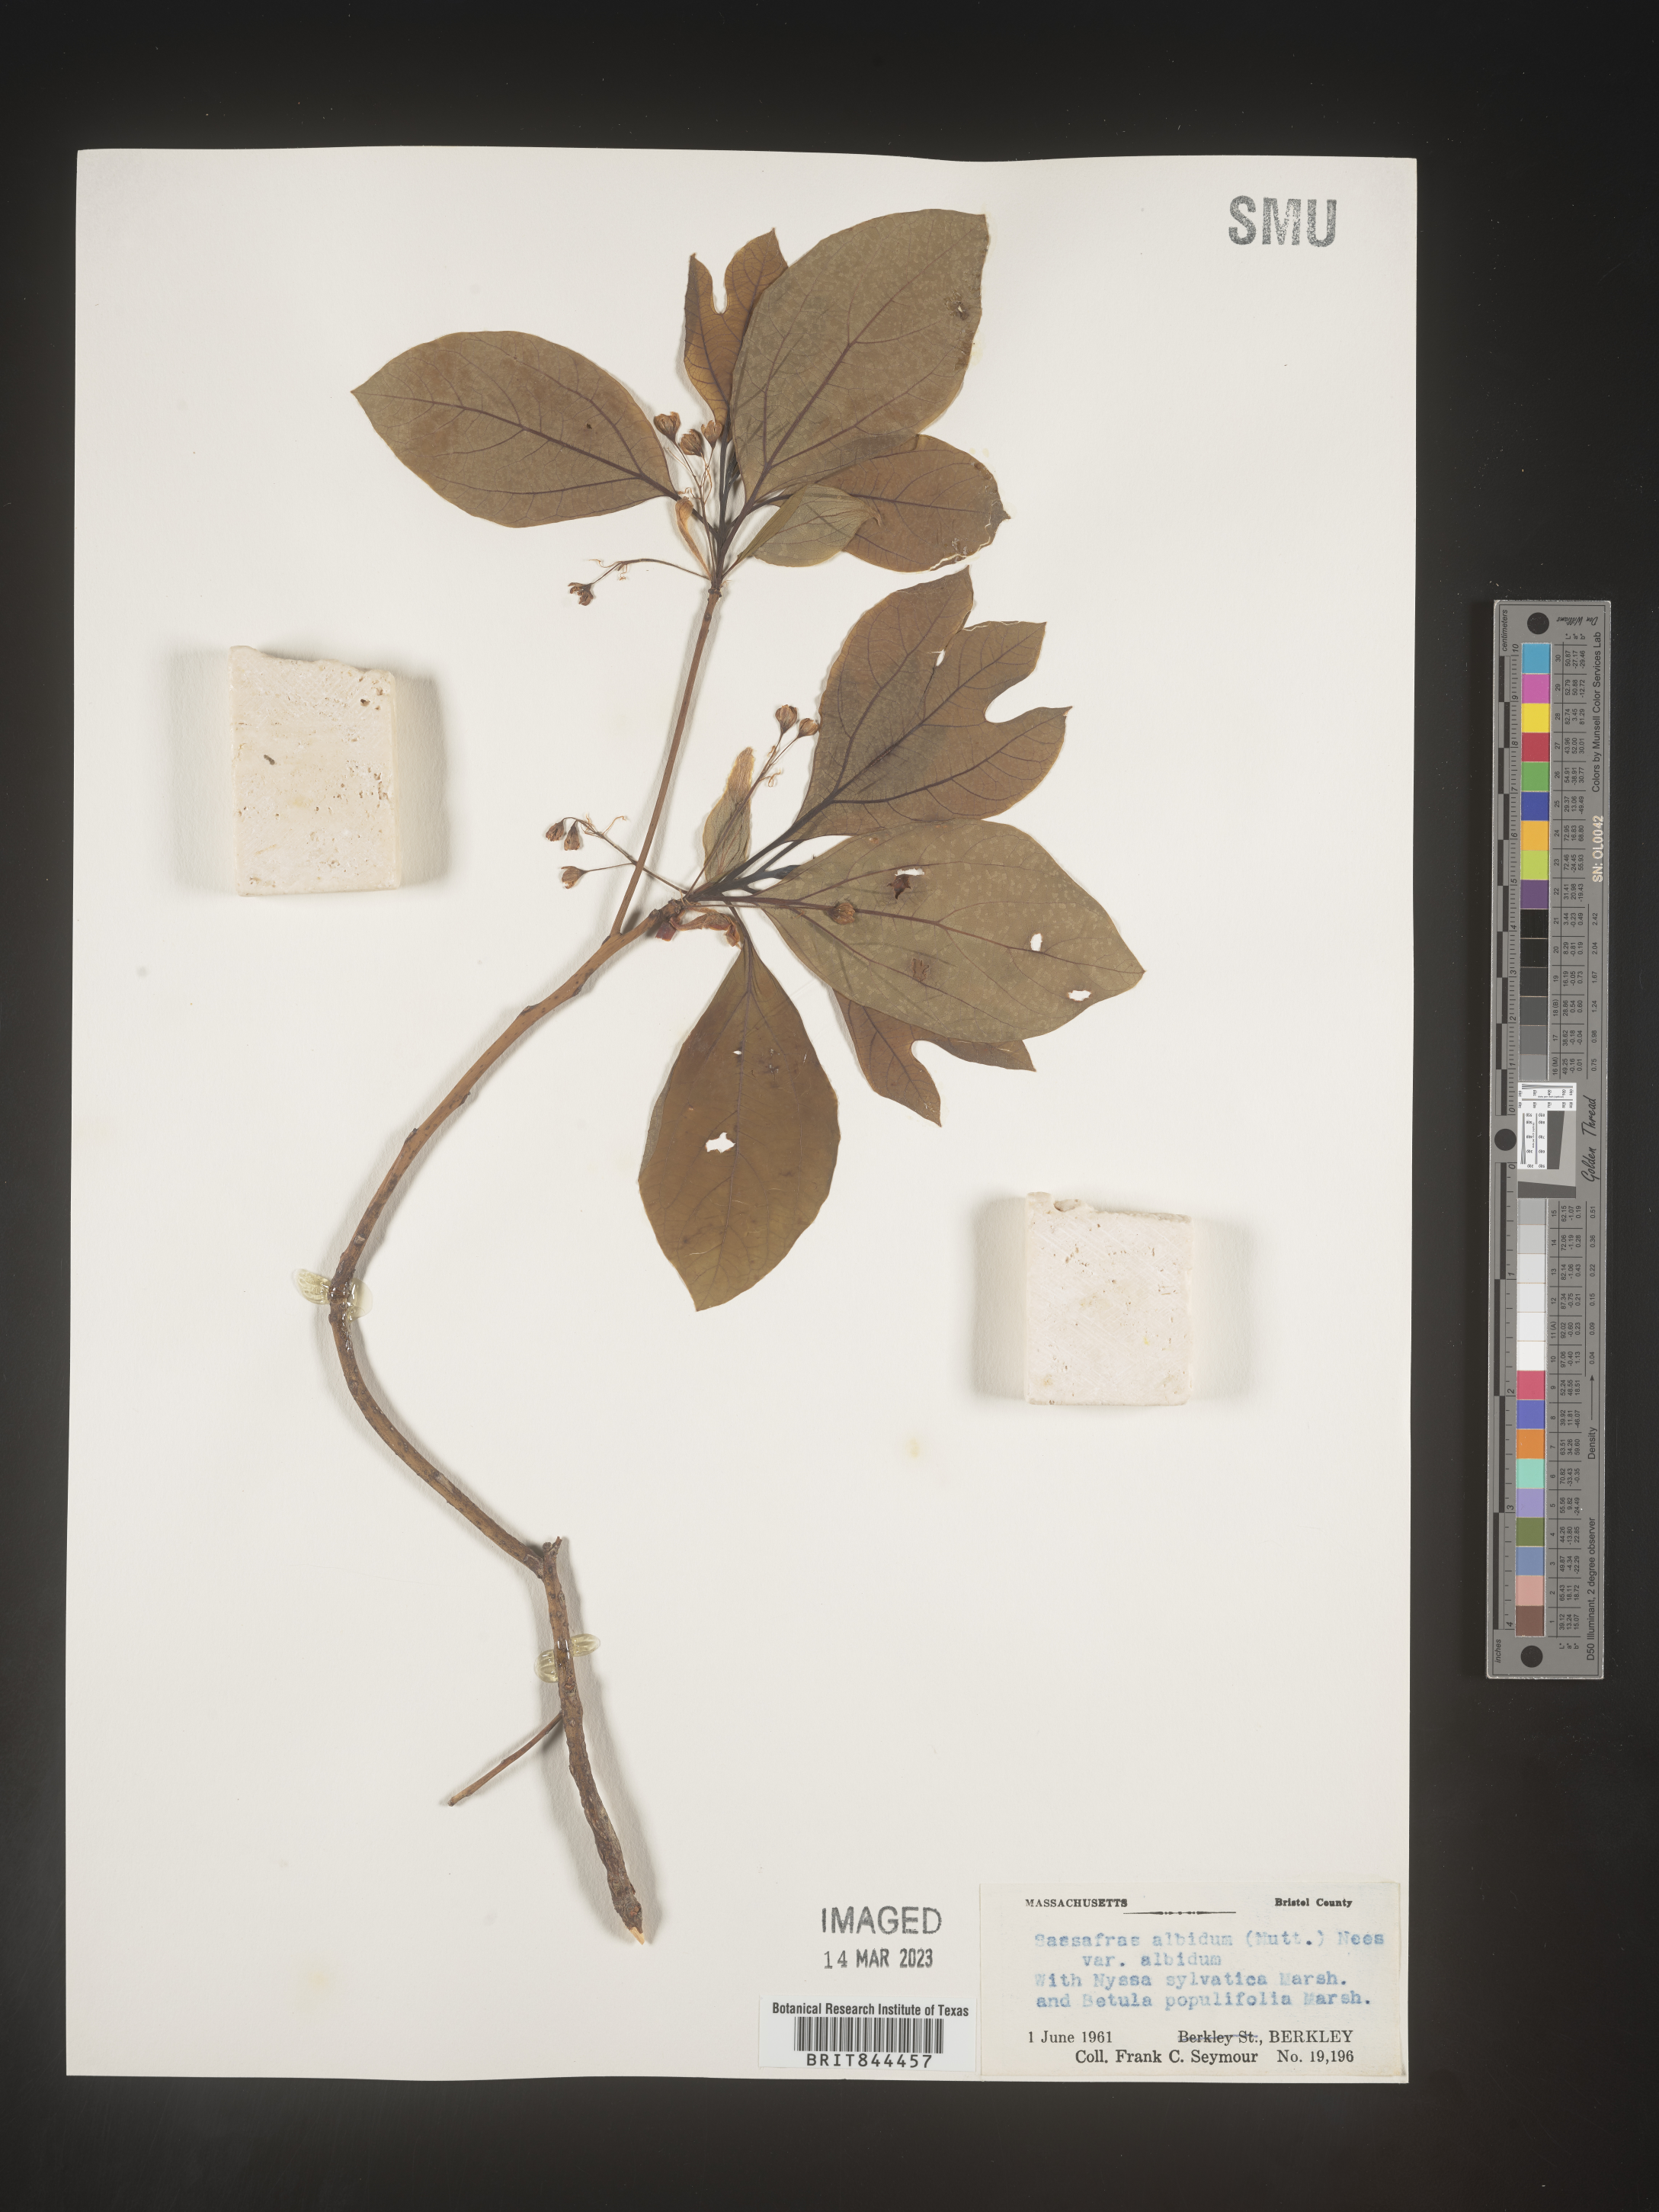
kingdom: Plantae
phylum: Tracheophyta
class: Magnoliopsida
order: Laurales
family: Lauraceae
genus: Sassafras
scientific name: Sassafras albidum
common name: Sassafras
